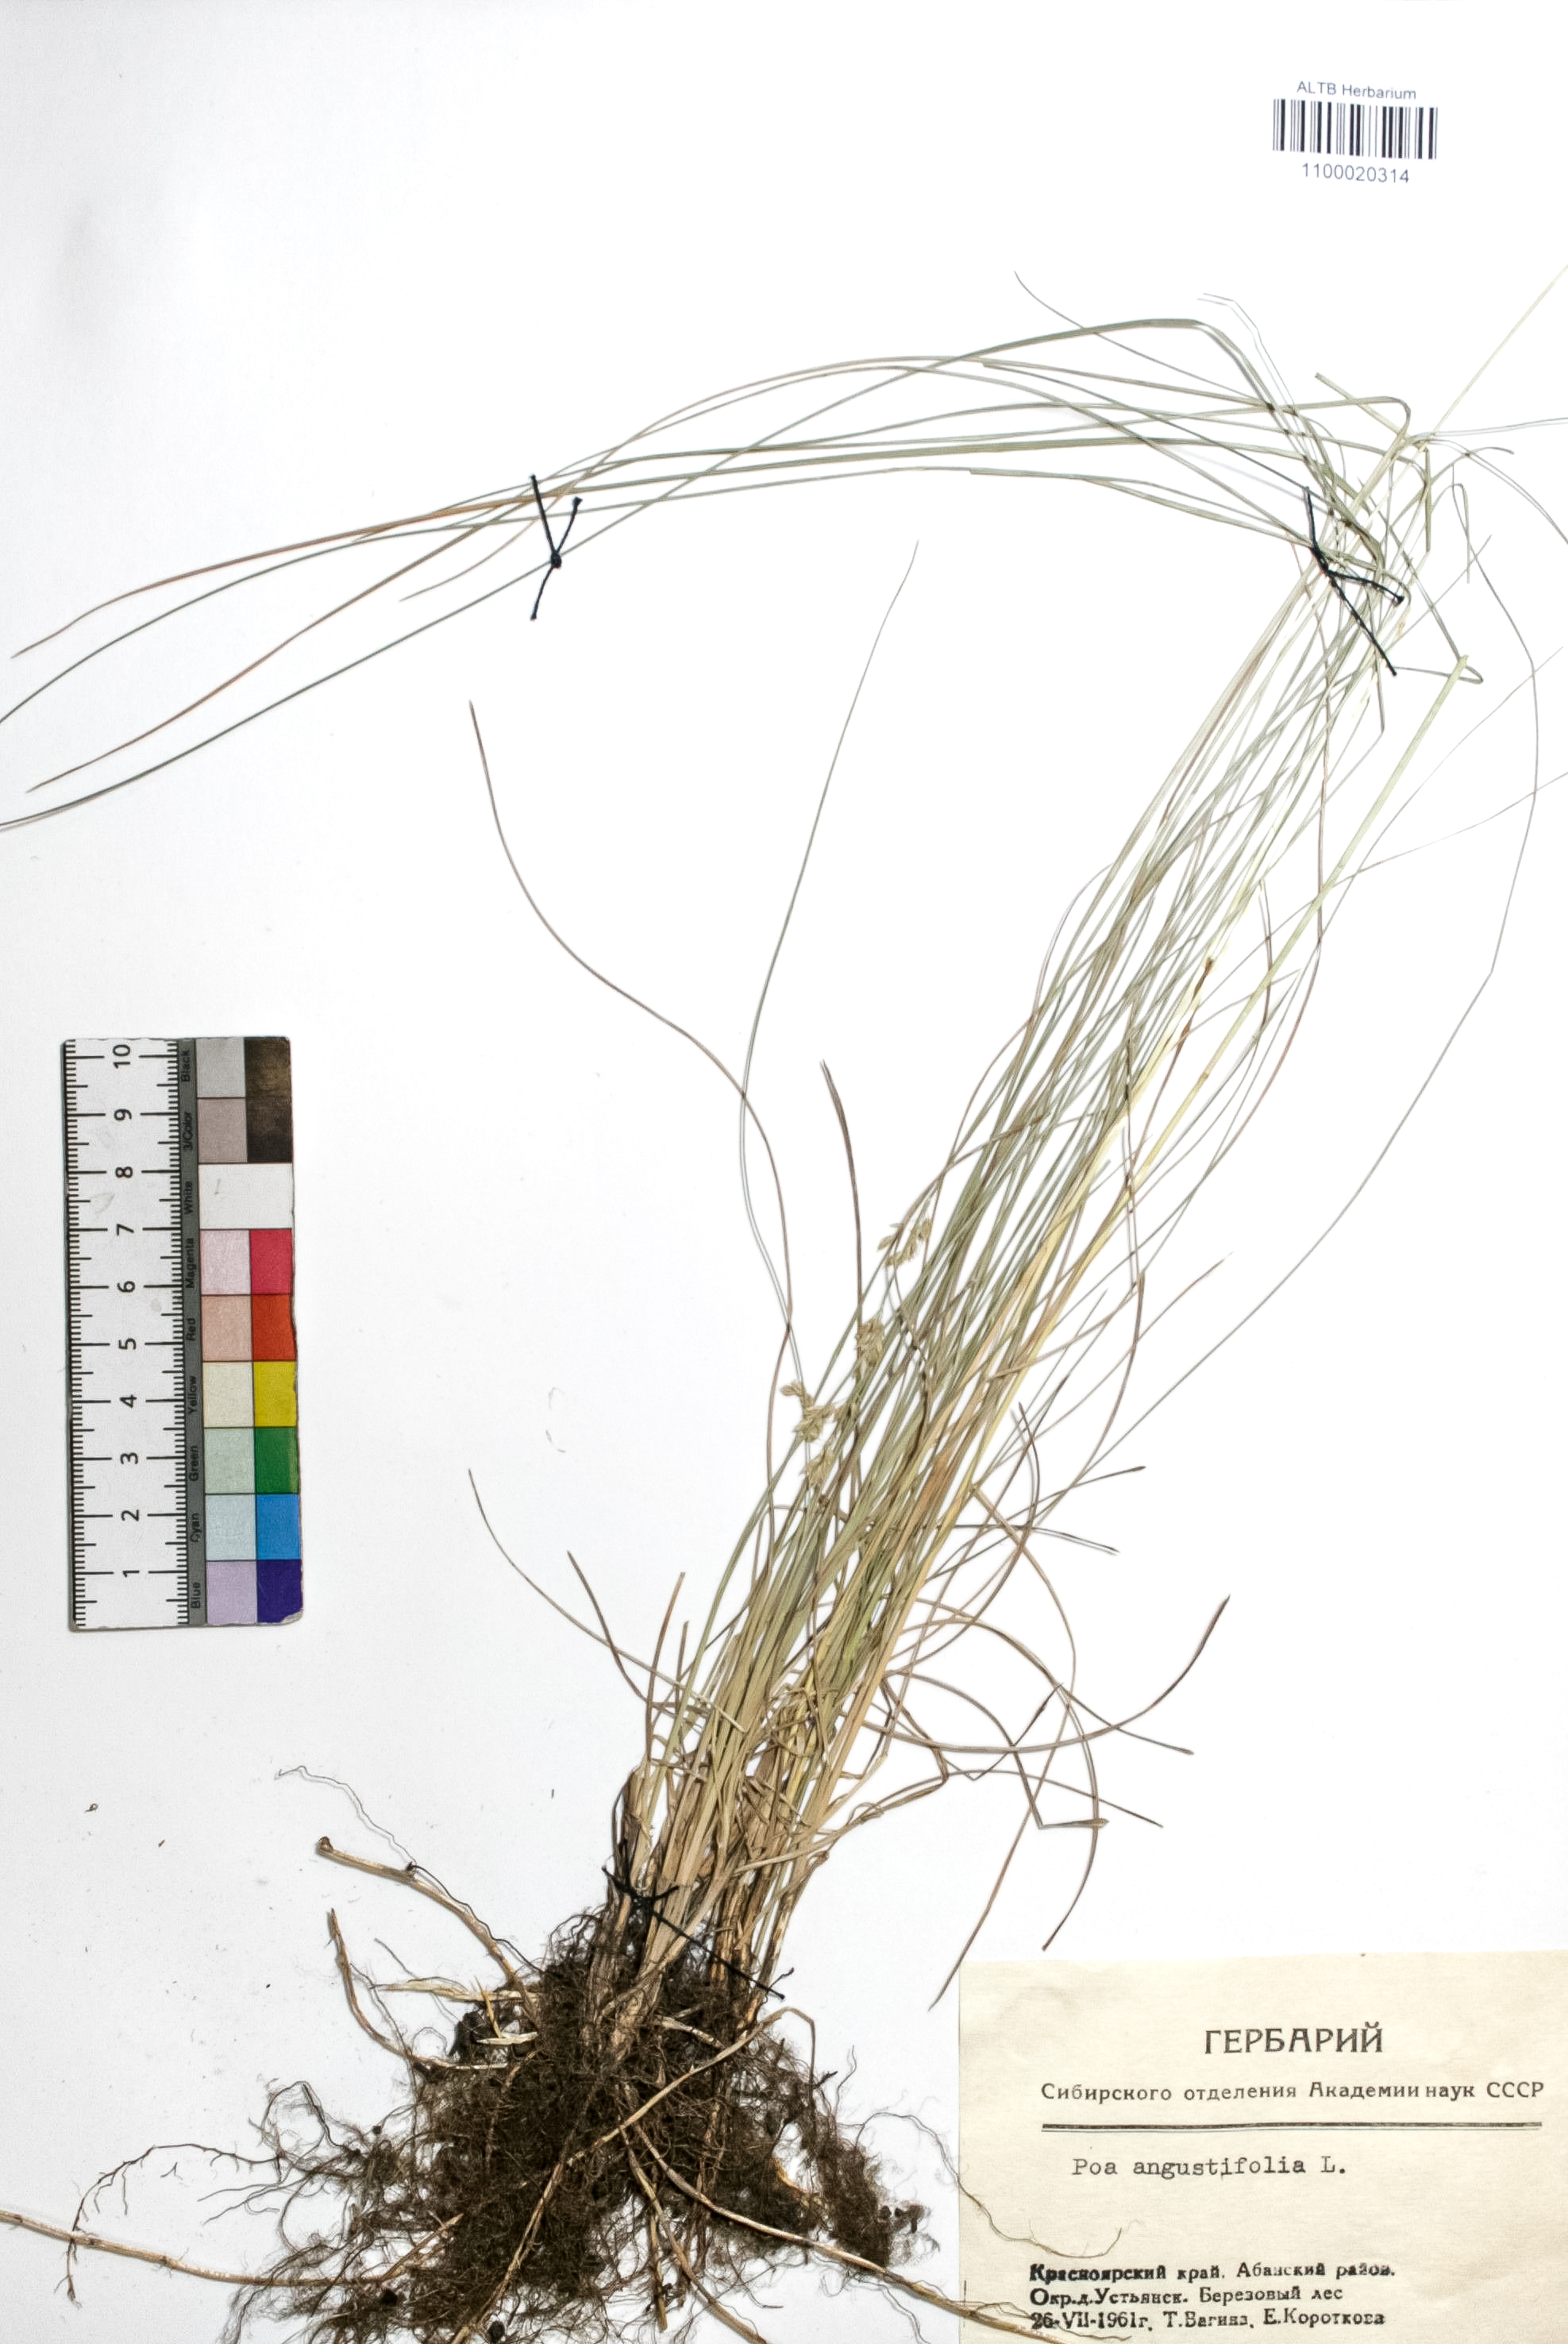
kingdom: Plantae
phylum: Tracheophyta
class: Liliopsida
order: Poales
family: Poaceae
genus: Poa
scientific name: Poa angustifolia
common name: Narrow-leaved meadow-grass
